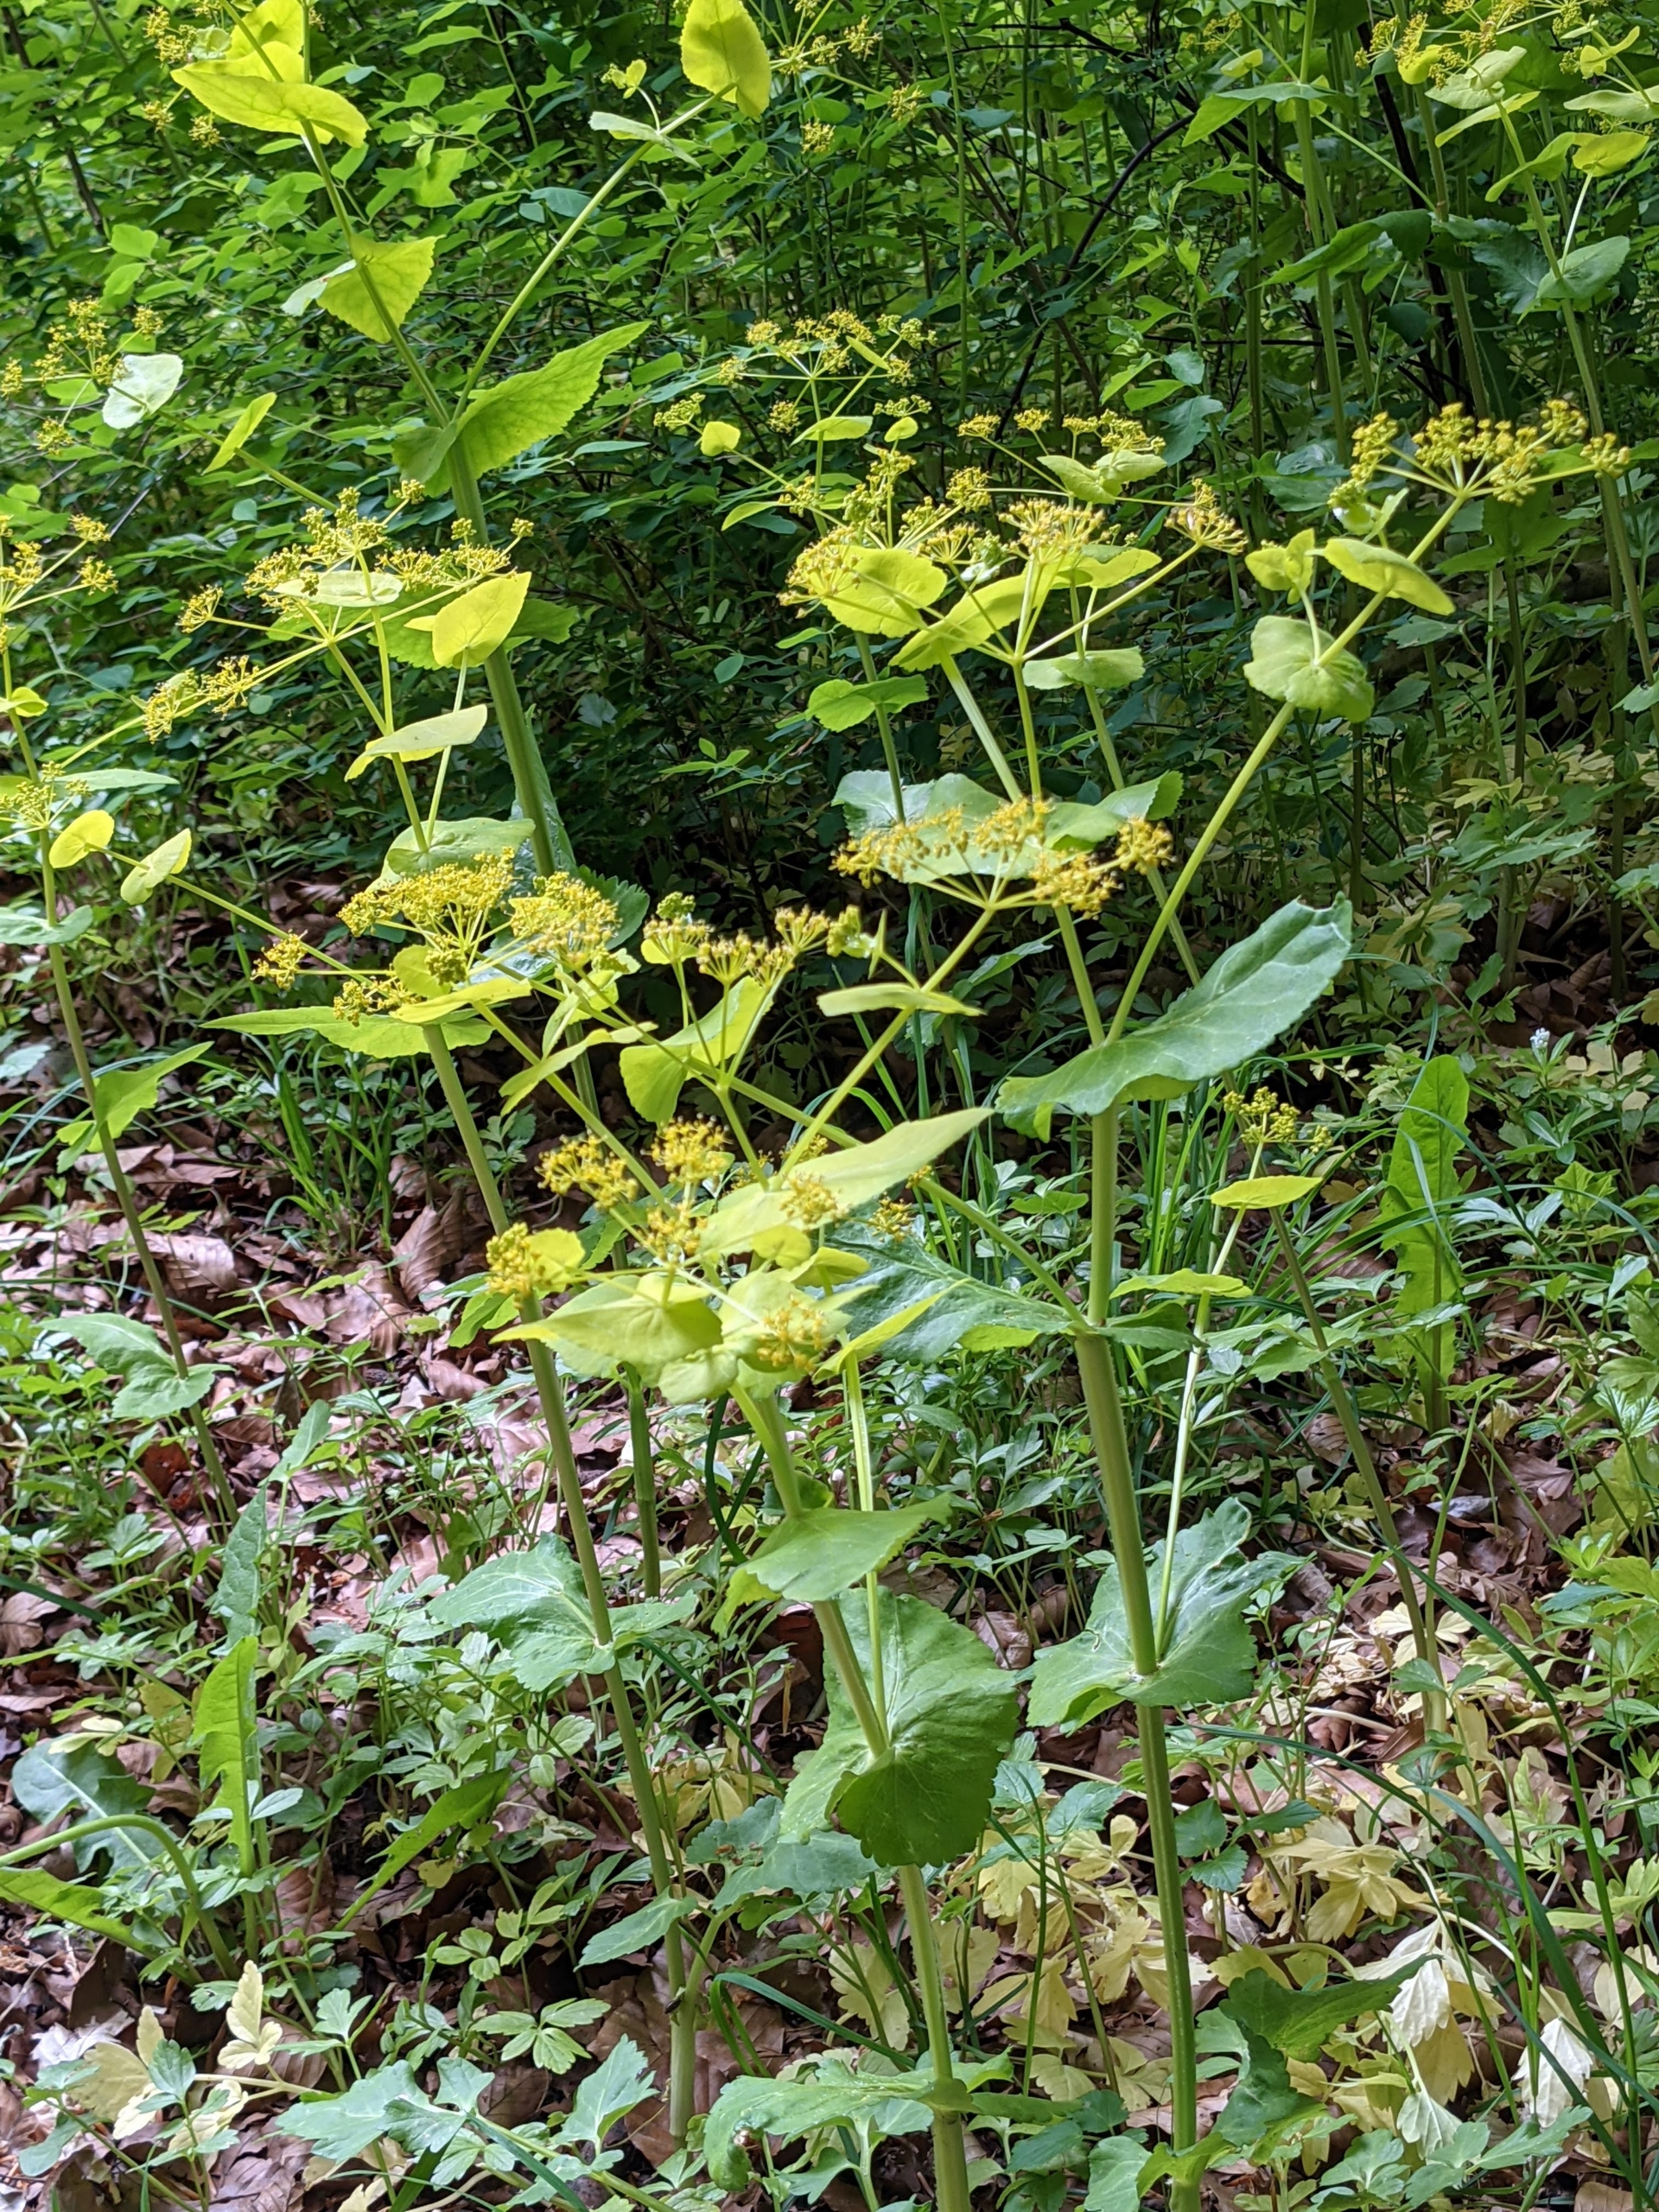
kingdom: Plantae
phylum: Tracheophyta
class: Magnoliopsida
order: Apiales
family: Apiaceae
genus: Smyrnium
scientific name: Smyrnium perfoliatum
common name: Lundgylden
